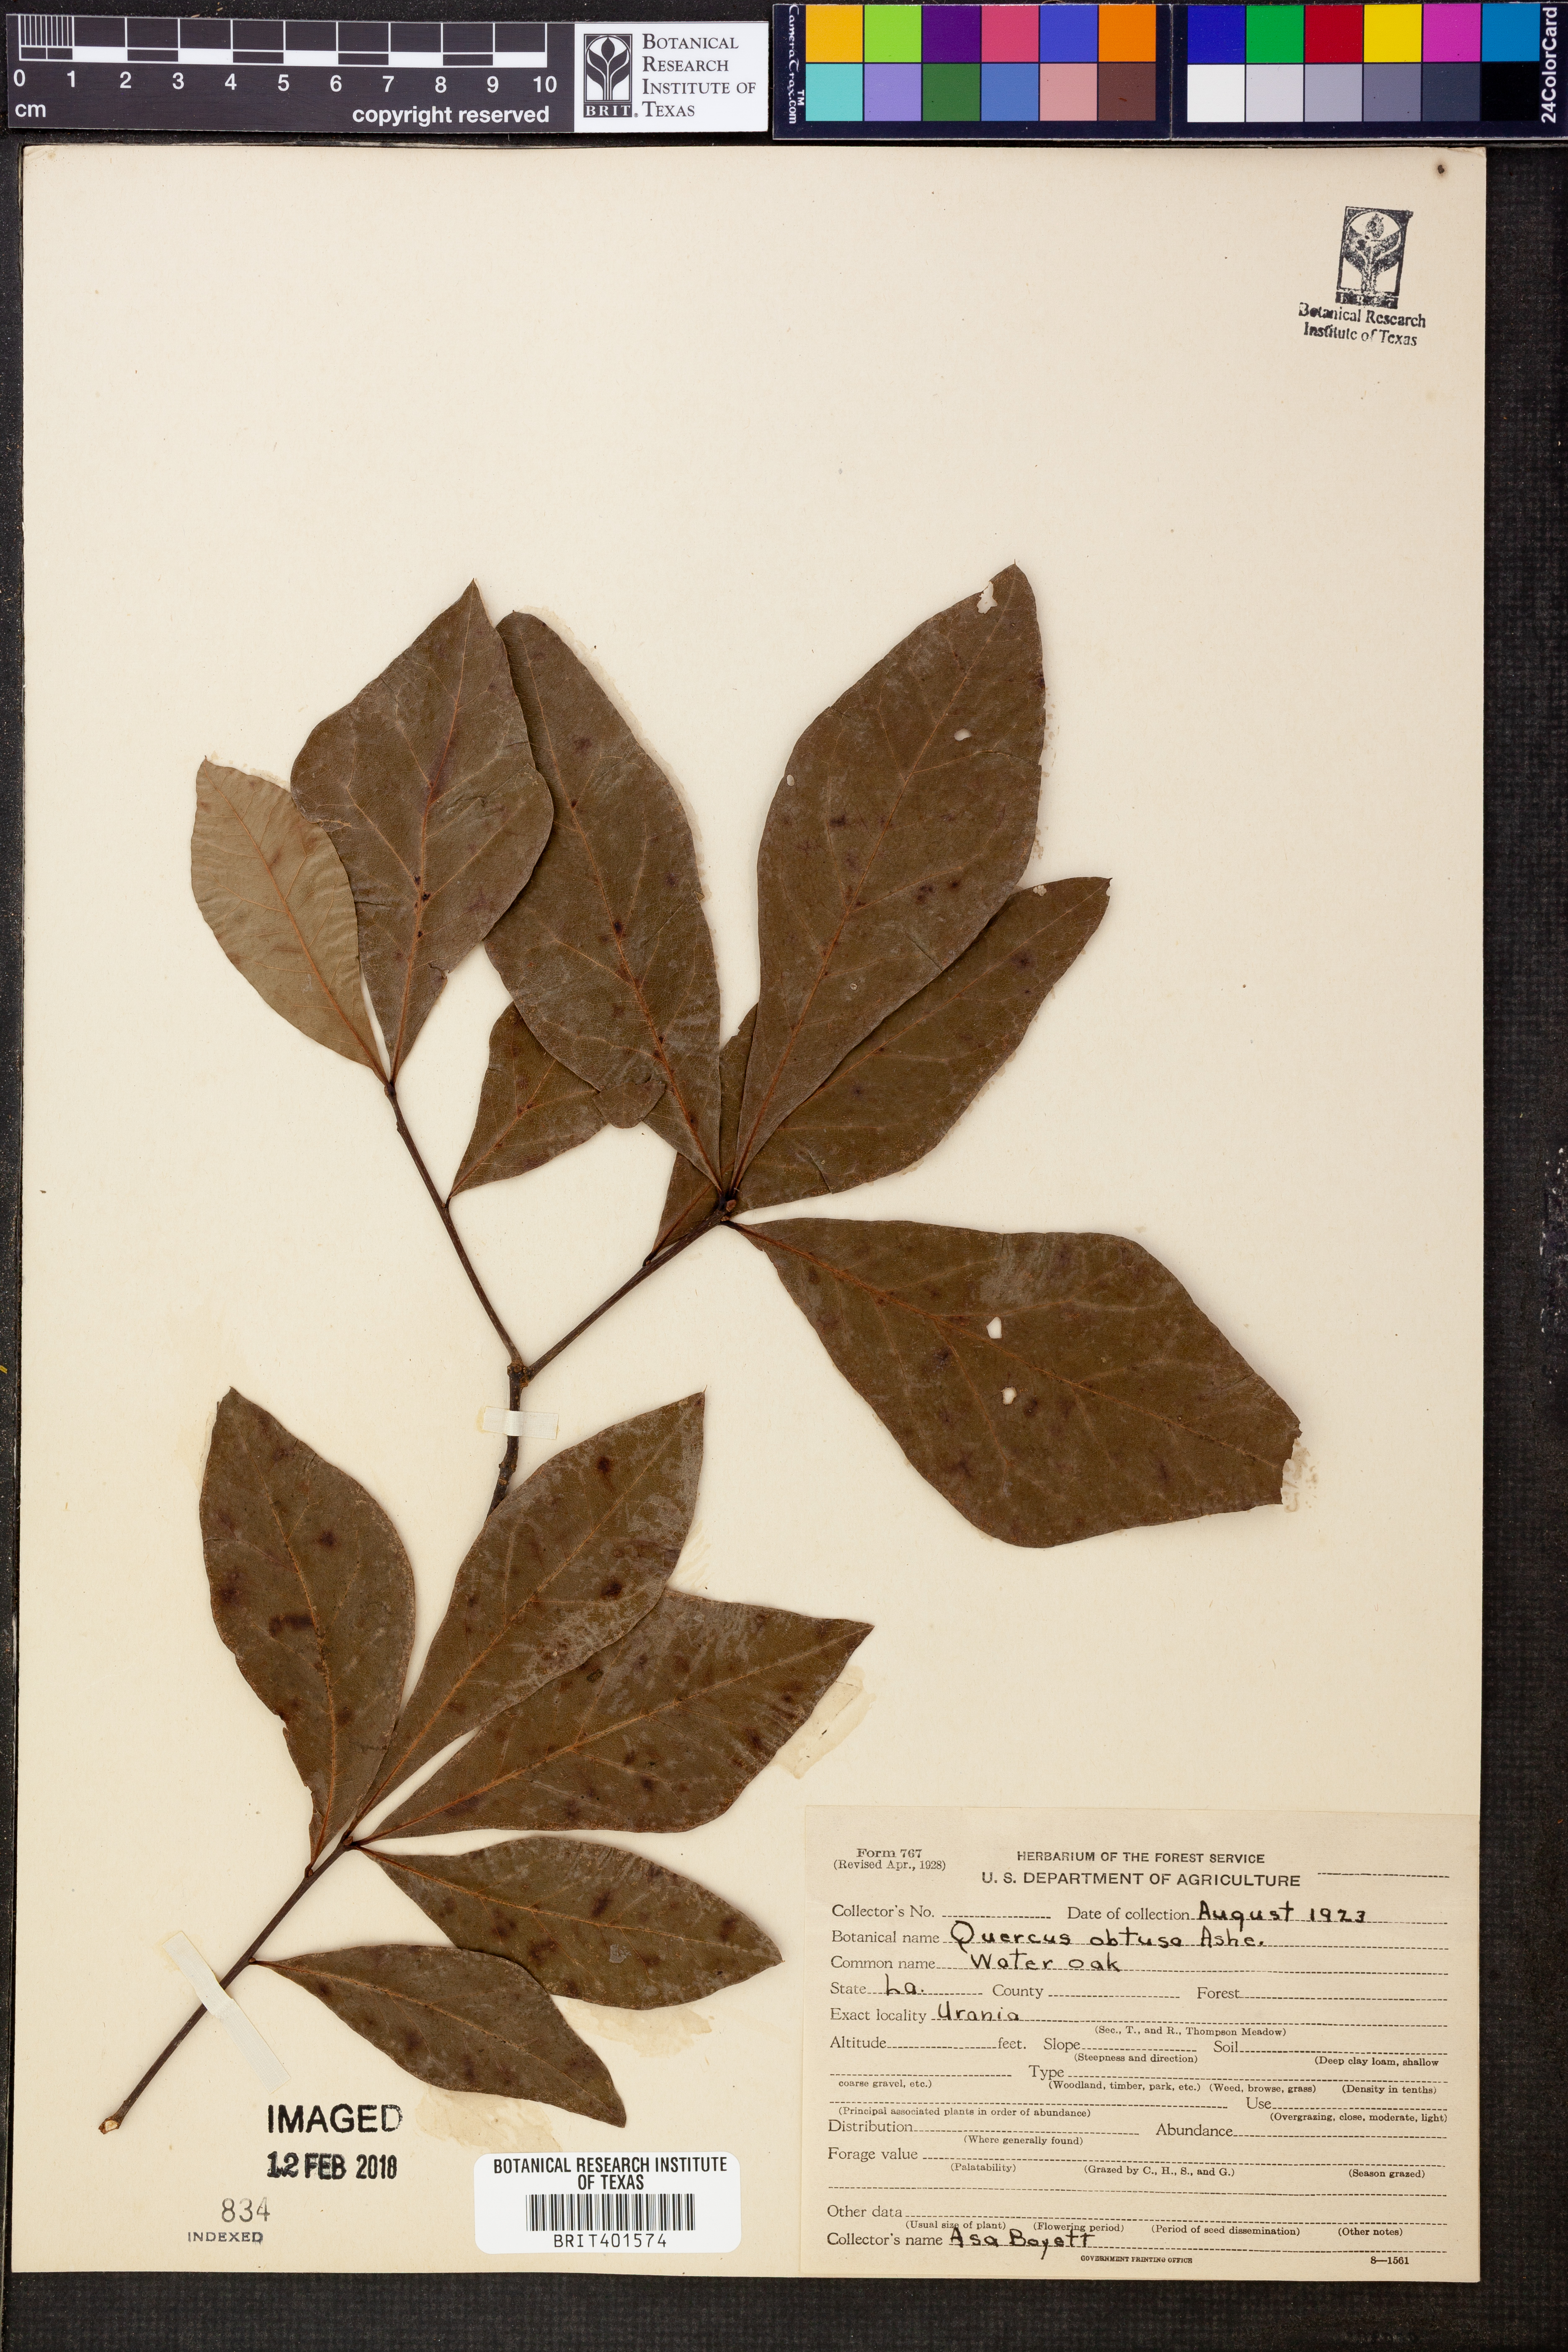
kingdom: Plantae
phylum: Tracheophyta
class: Magnoliopsida
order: Fagales
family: Fagaceae
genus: Quercus
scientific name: Quercus laurifolia
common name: Swamp laurel oak
